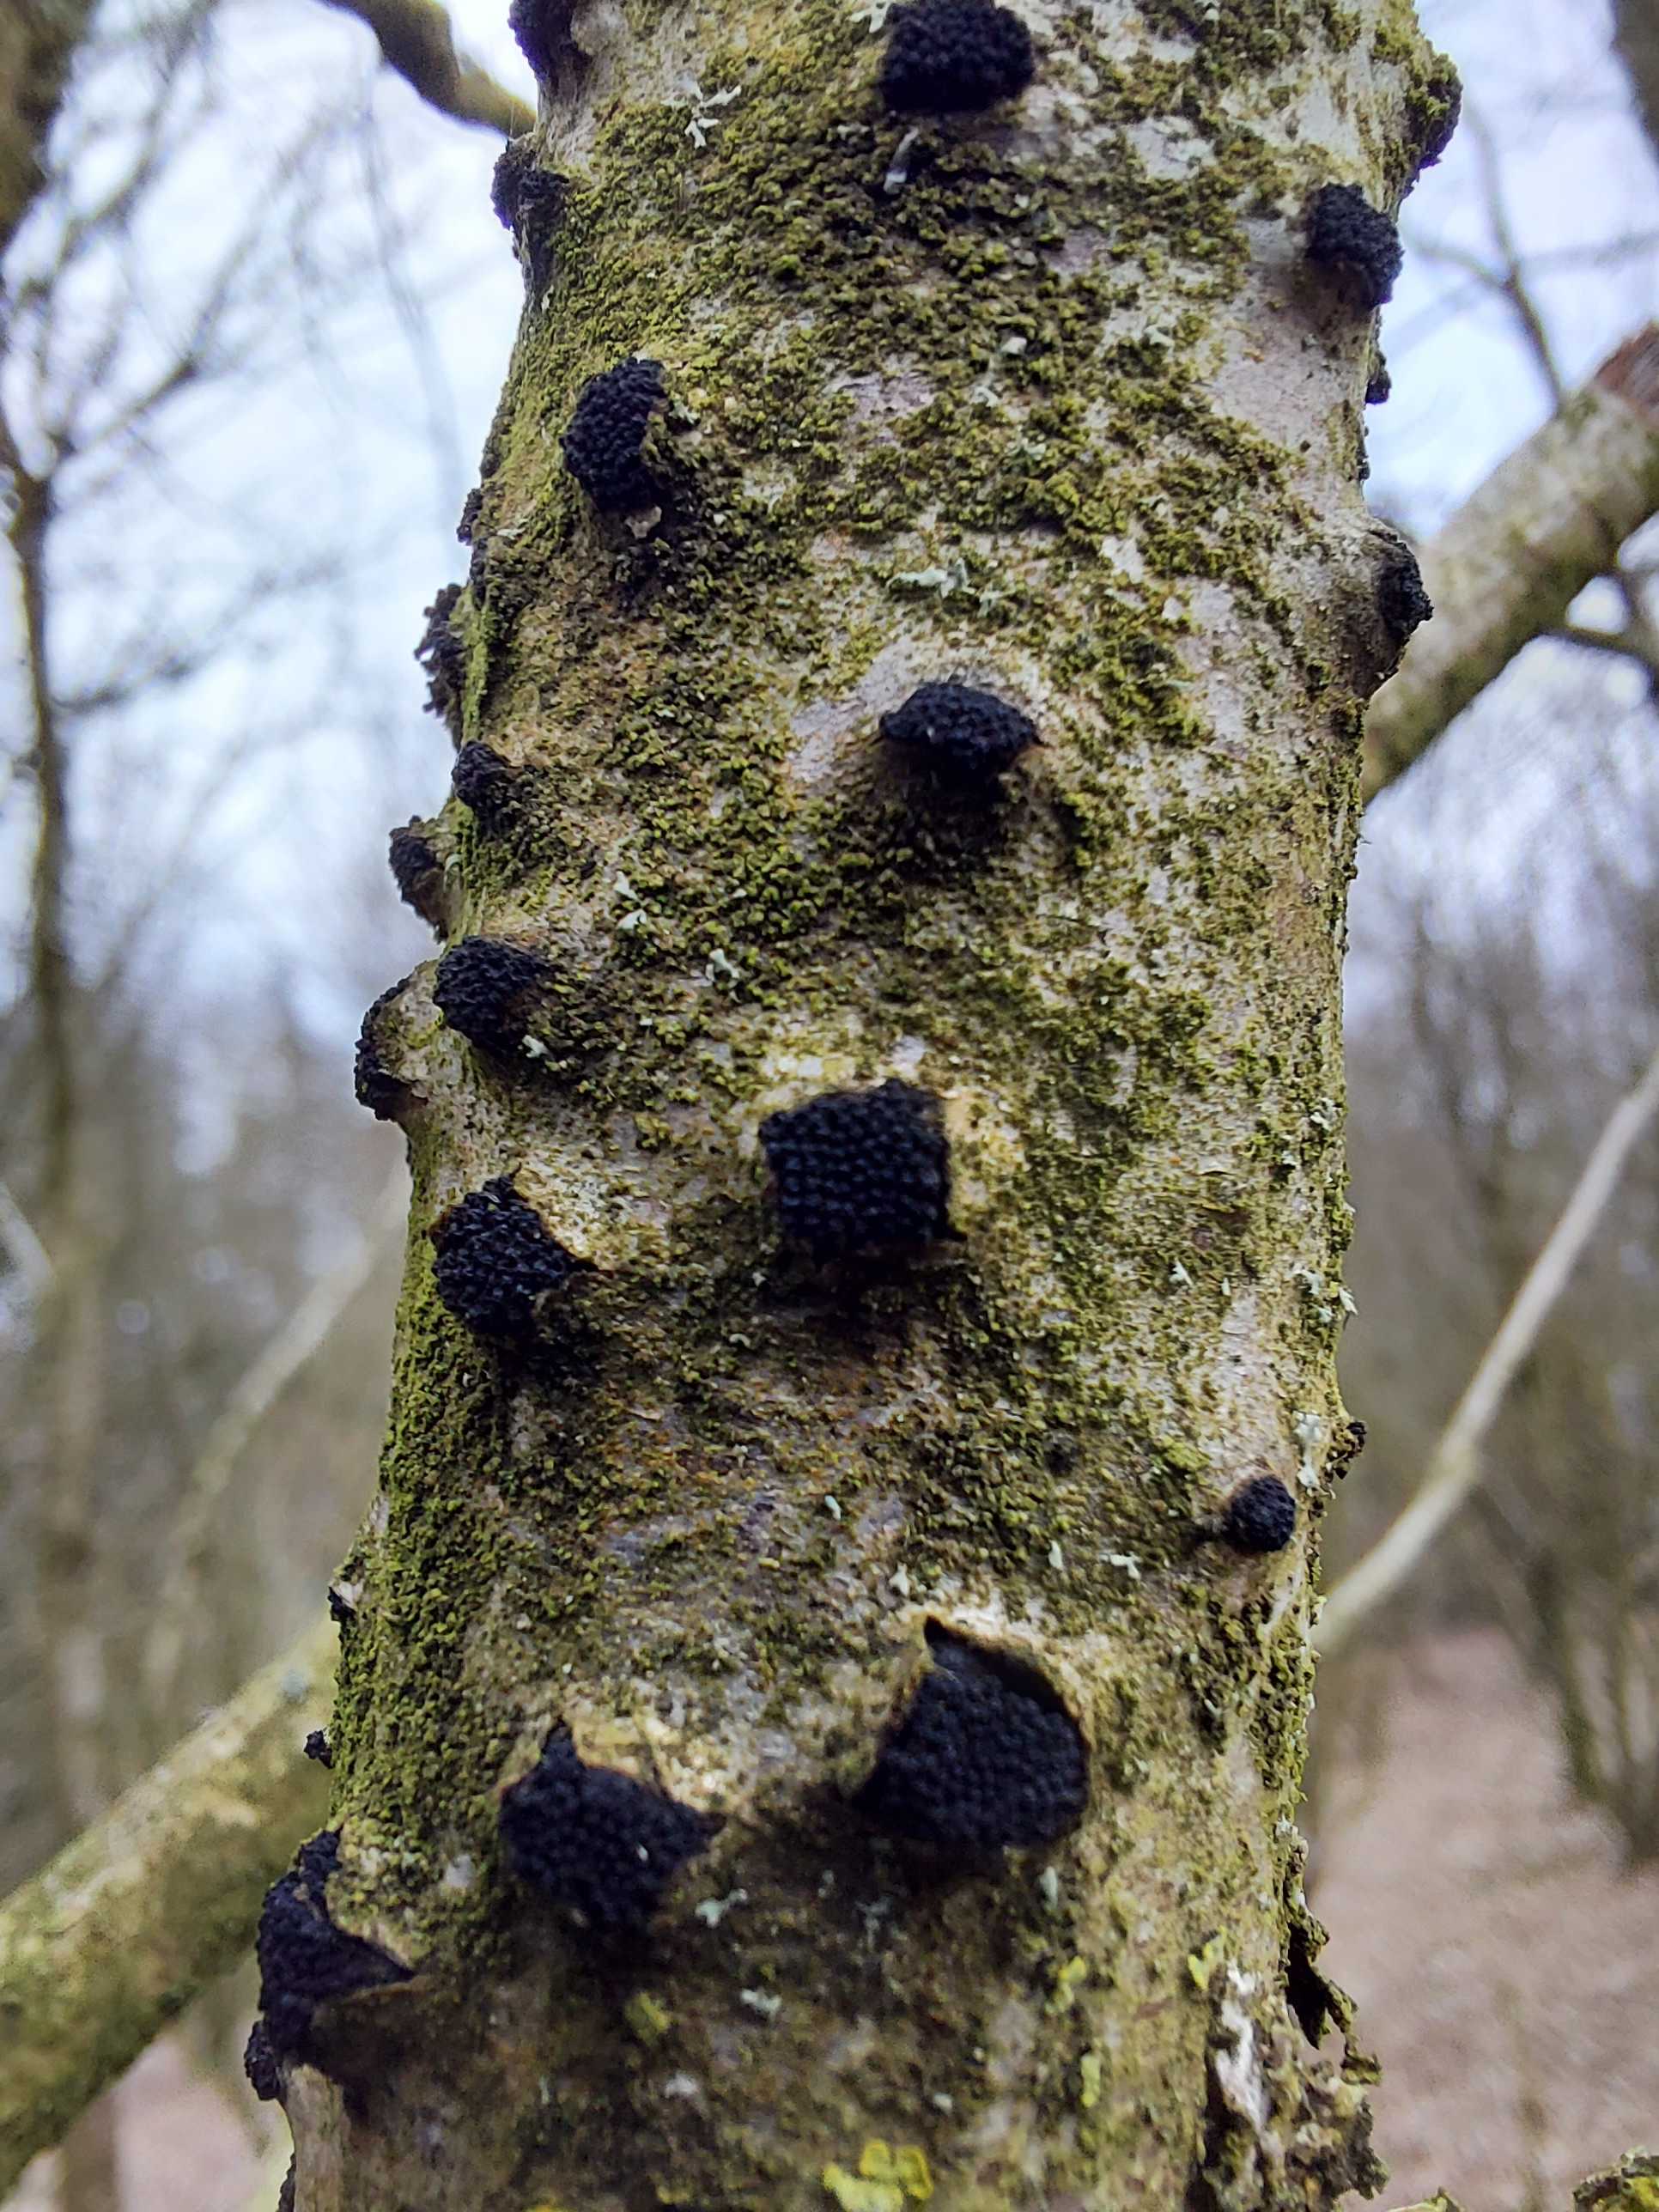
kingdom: Fungi
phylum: Ascomycota
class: Sordariomycetes
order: Xylariales
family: Diatrypaceae
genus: Eutypella
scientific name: Eutypella sorbi
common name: rønne-kulskorpe
